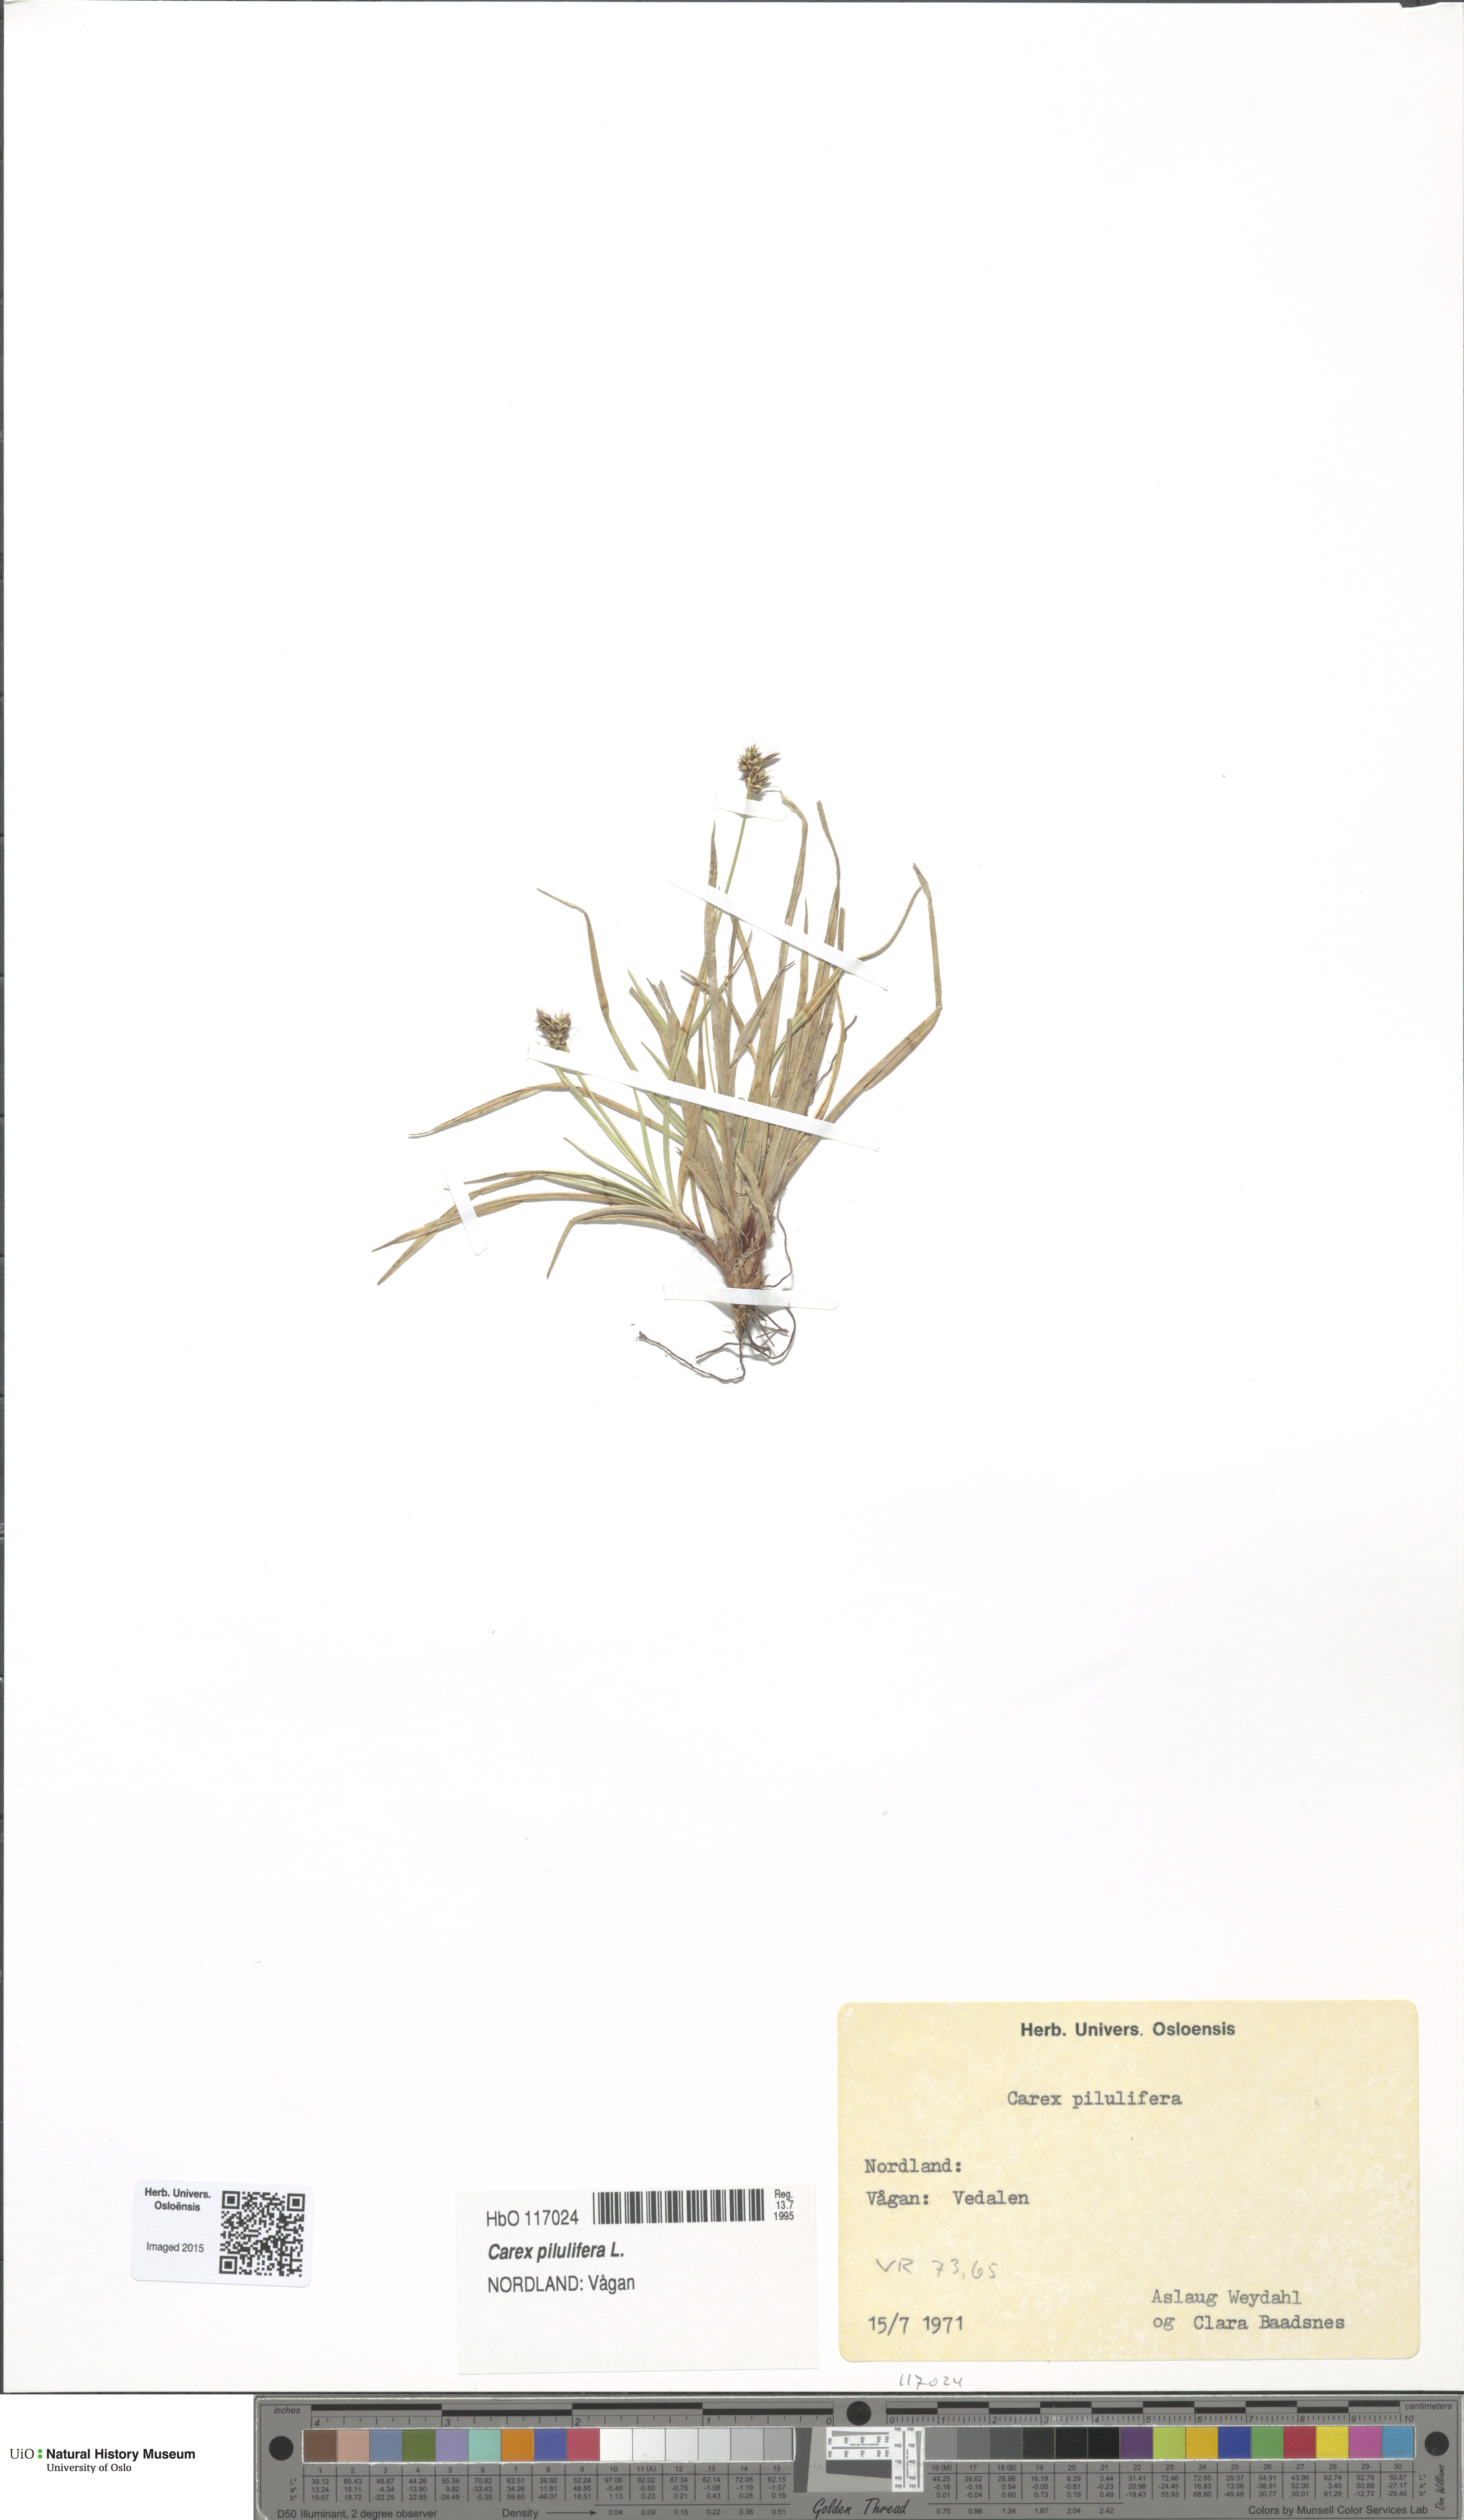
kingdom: Plantae
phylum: Tracheophyta
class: Liliopsida
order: Poales
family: Cyperaceae
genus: Carex
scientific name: Carex pilulifera
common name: Pill sedge
